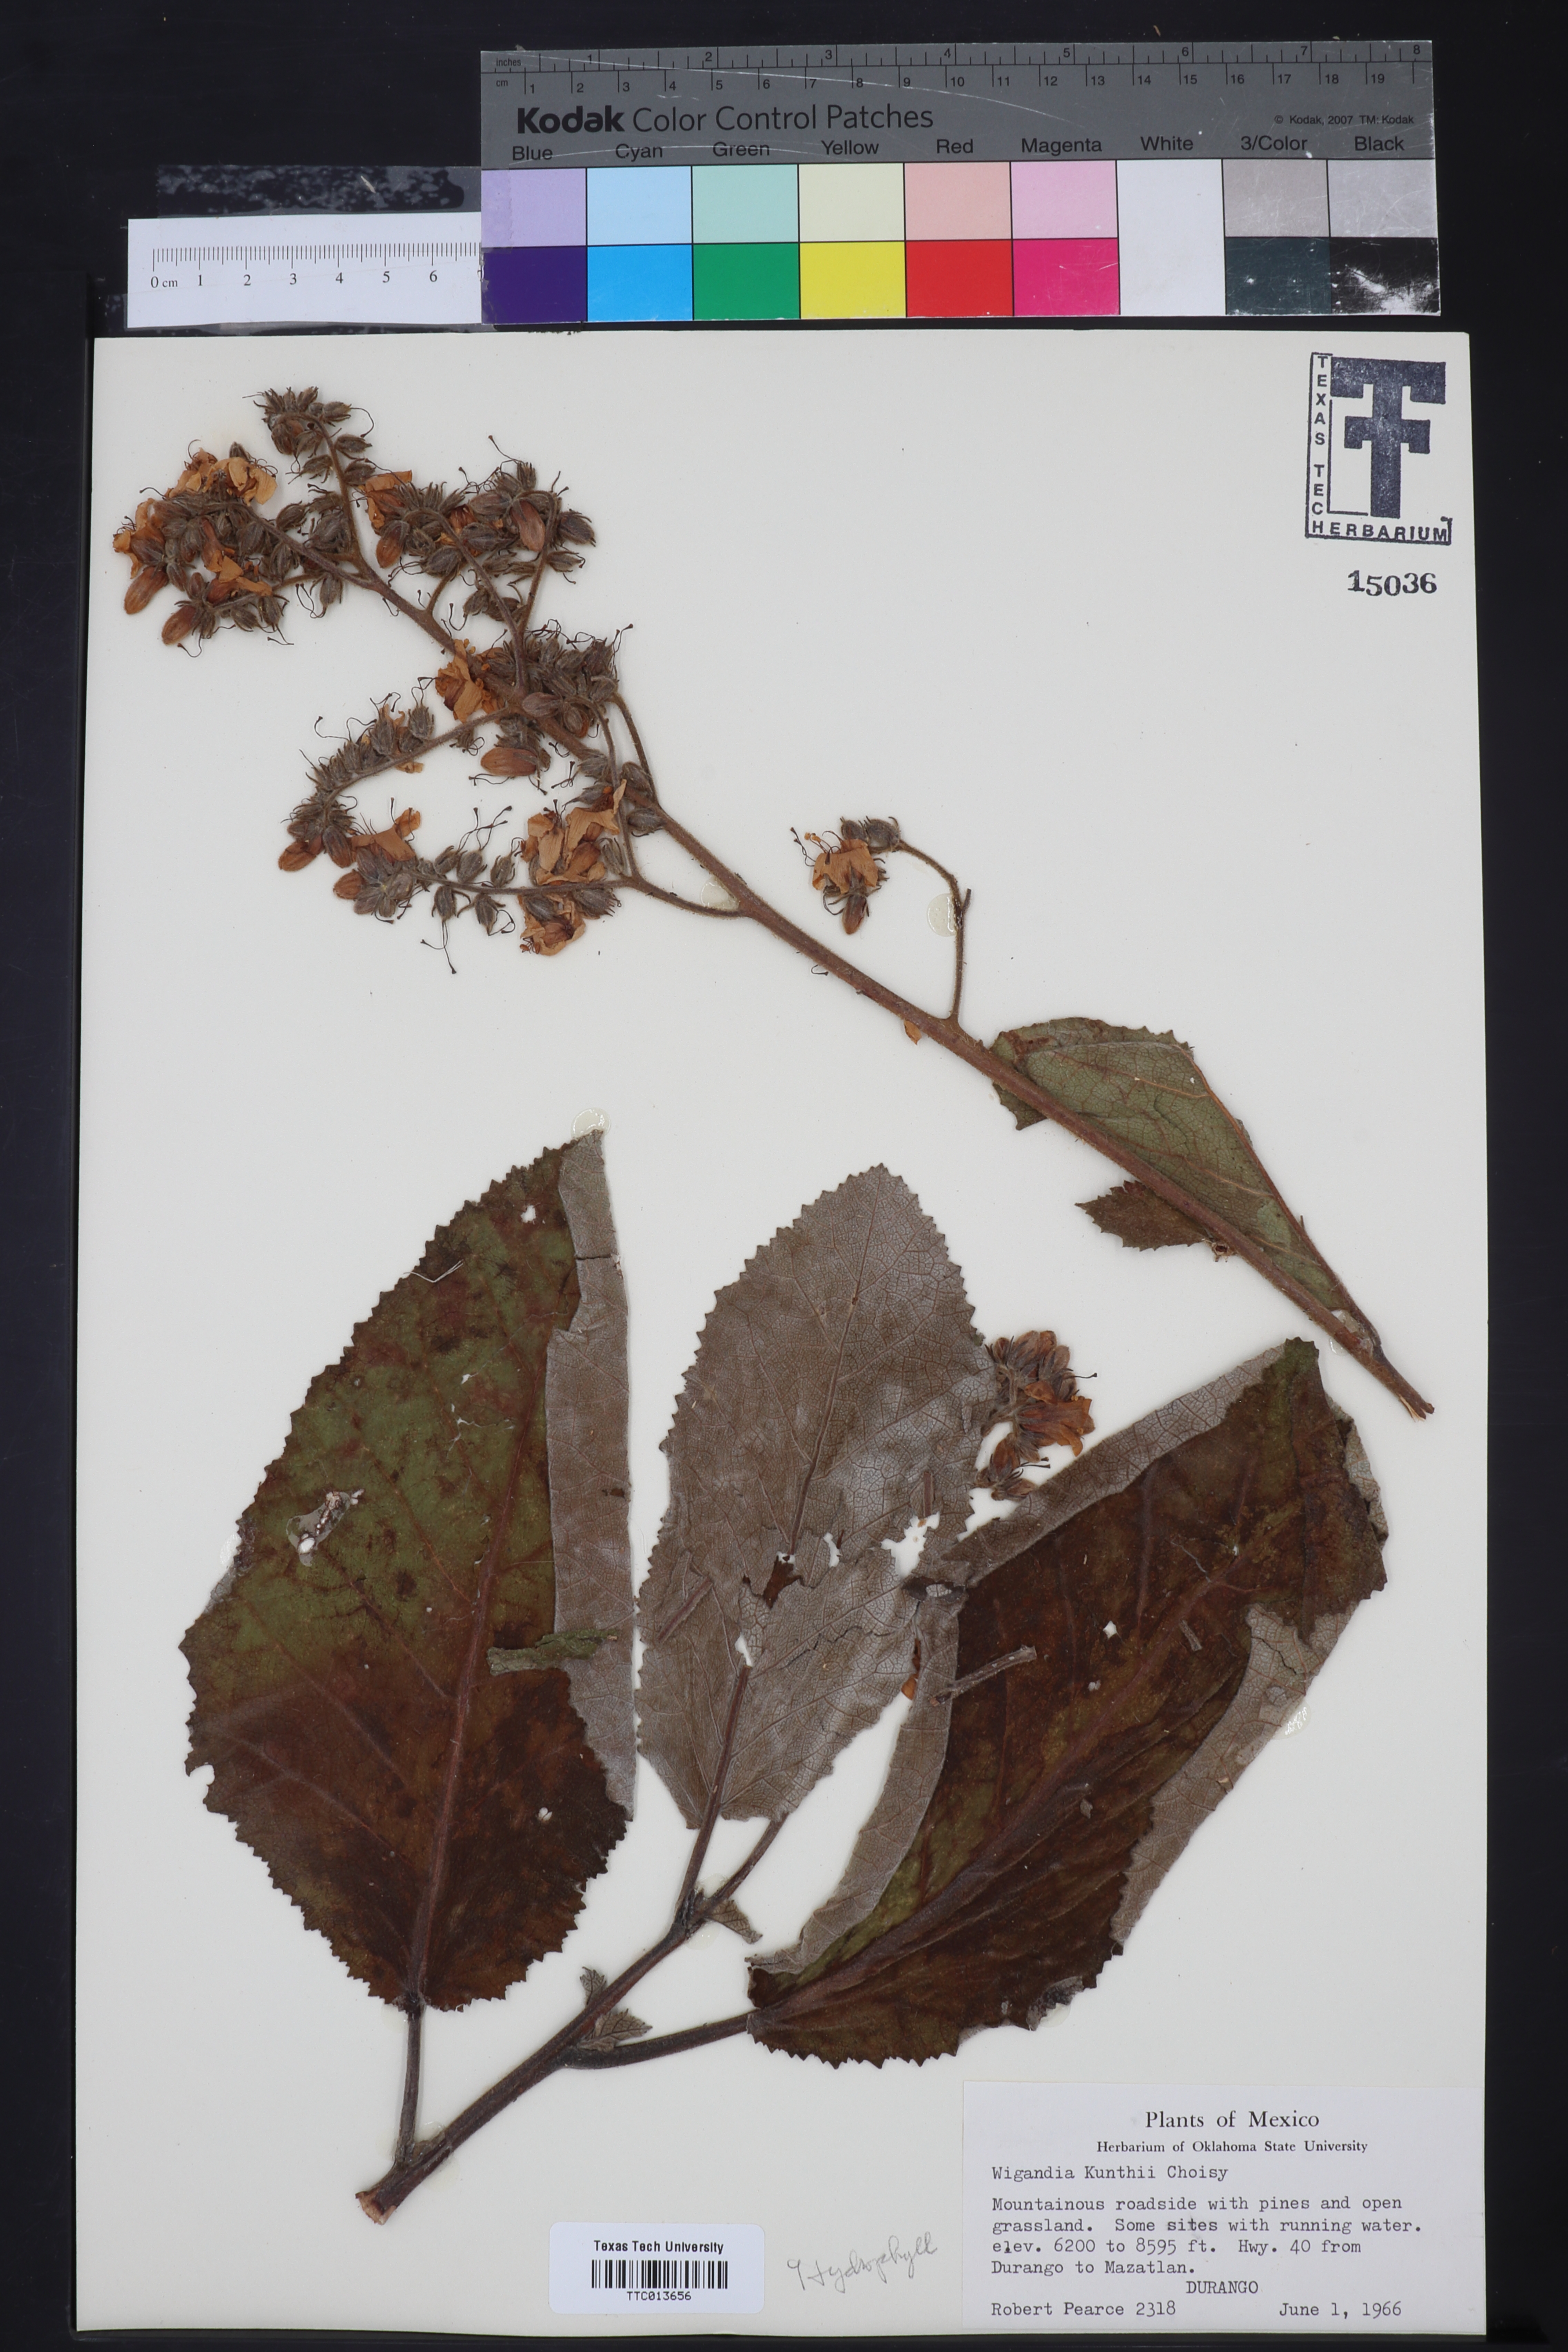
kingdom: Plantae
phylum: Tracheophyta
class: Magnoliopsida
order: Boraginales
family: Namaceae
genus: Wigandia
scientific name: Wigandia urens
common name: Caracus wigandia
